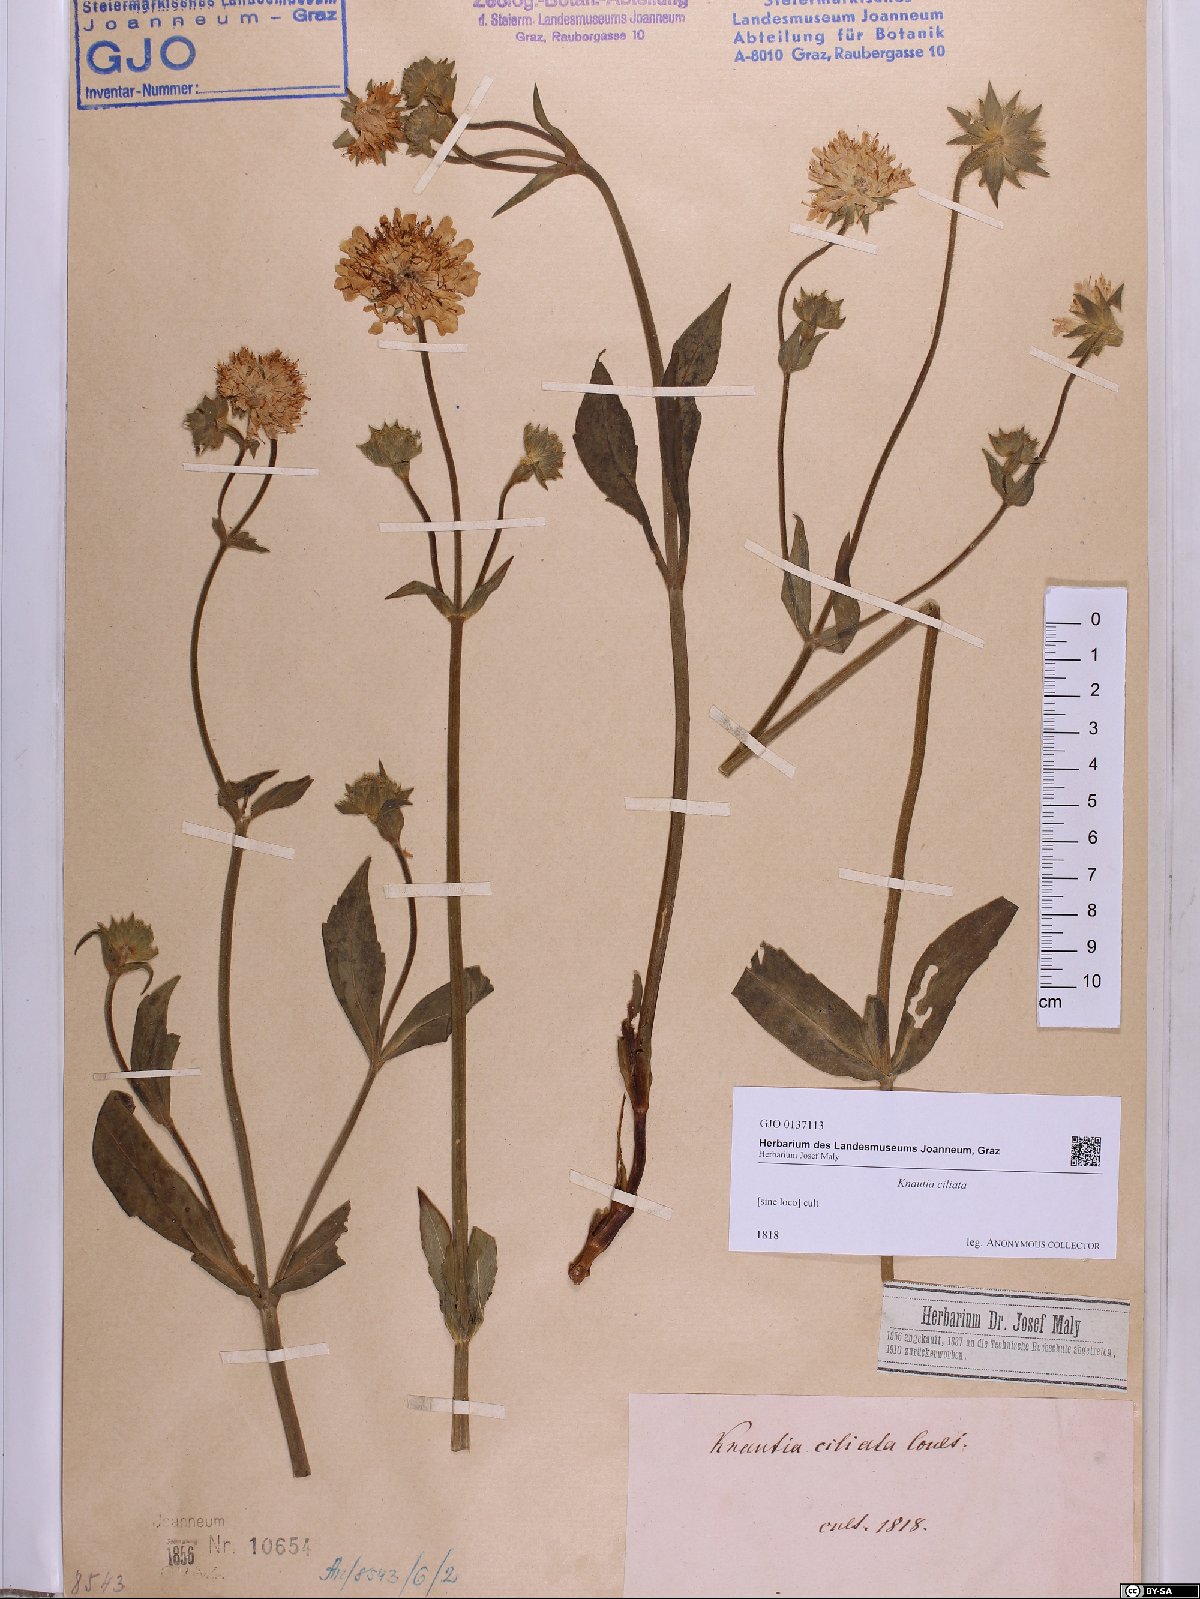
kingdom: Plantae
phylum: Tracheophyta
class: Magnoliopsida
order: Dipsacales
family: Caprifoliaceae
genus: Knautia
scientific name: Knautia kitaibelii
